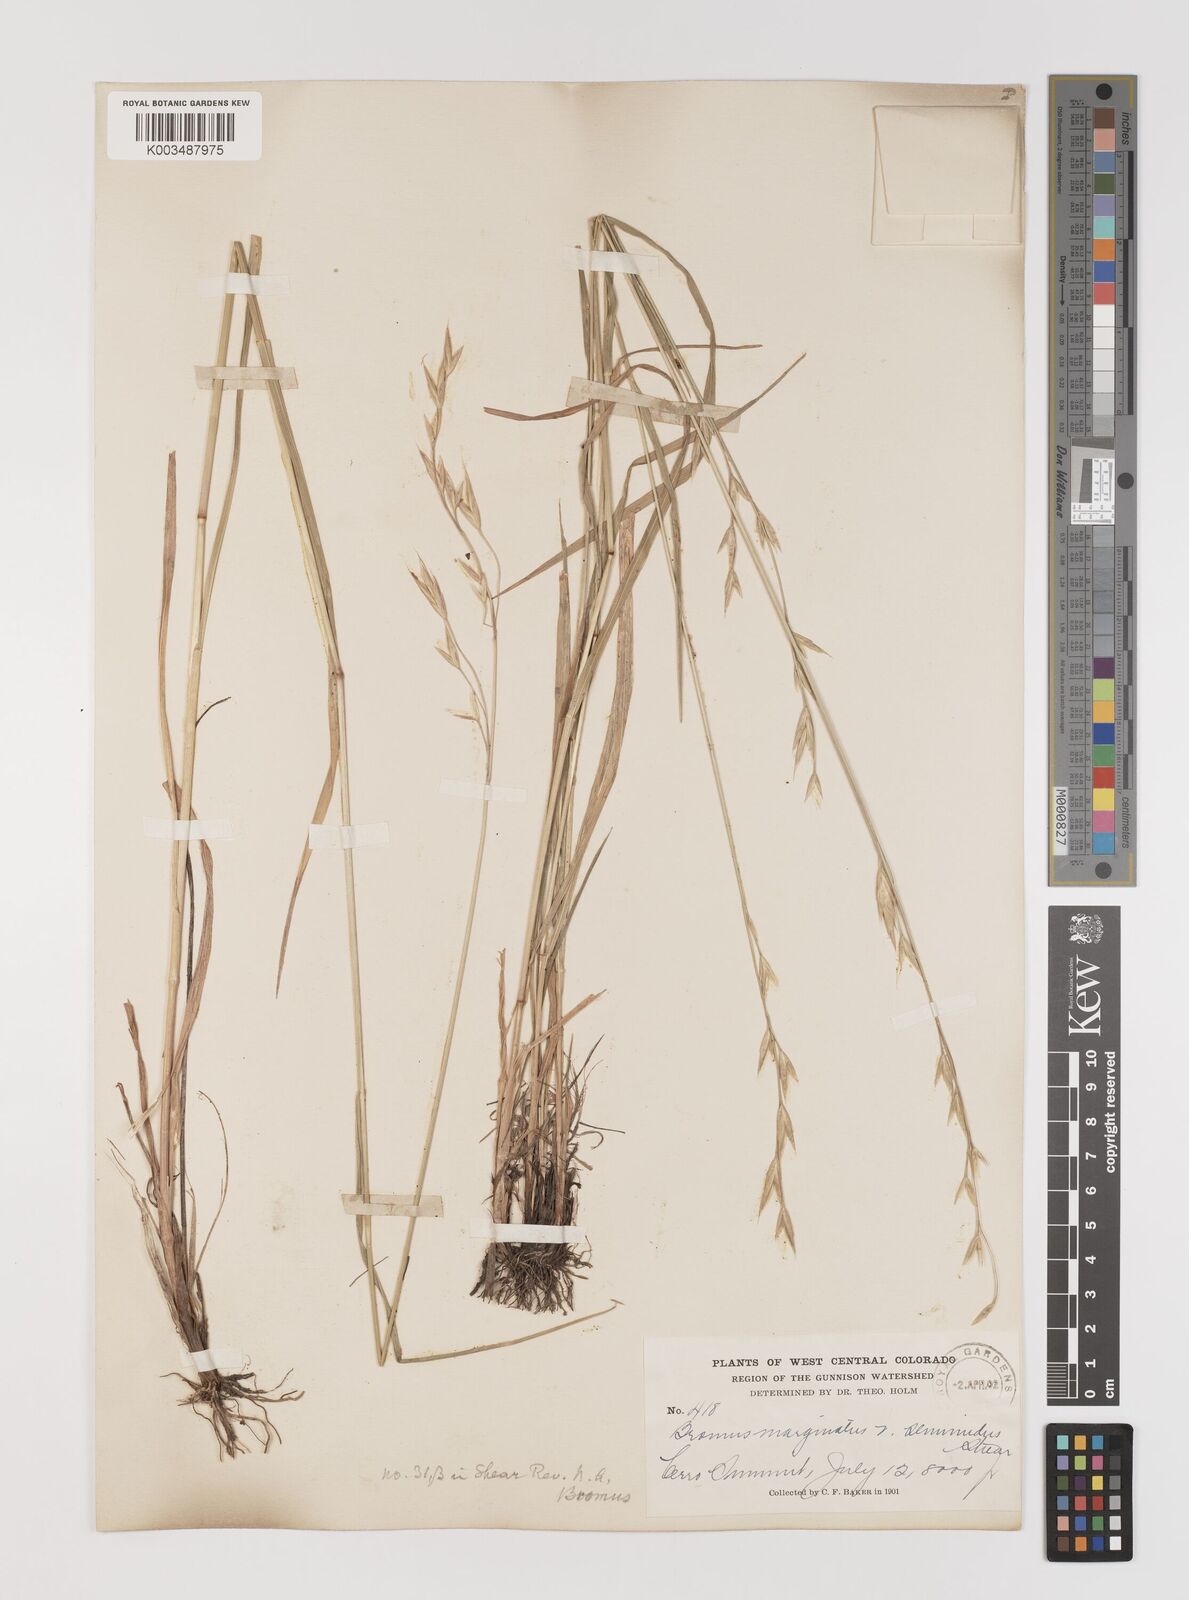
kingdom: Plantae
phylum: Tracheophyta
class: Liliopsida
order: Poales
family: Poaceae
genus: Bromus
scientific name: Bromus marginatus
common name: Western brome
